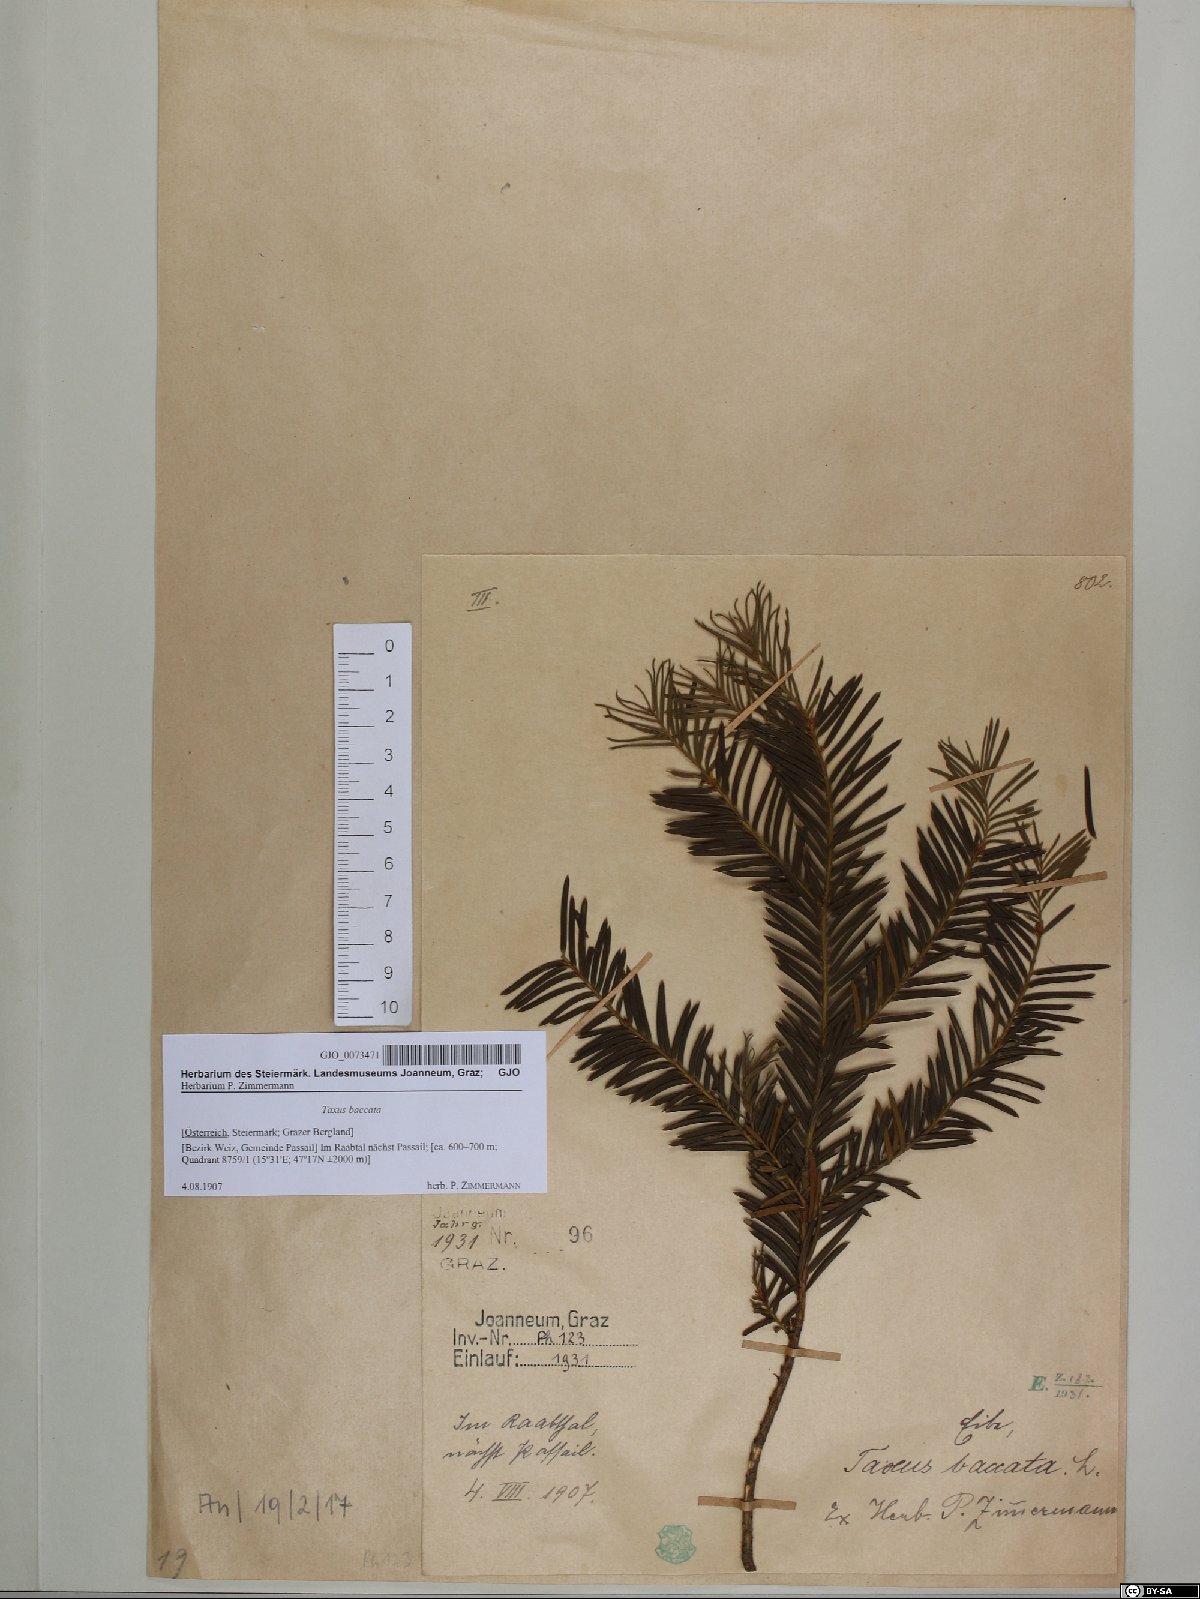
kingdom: Plantae
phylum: Tracheophyta
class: Pinopsida
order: Pinales
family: Taxaceae
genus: Taxus
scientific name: Taxus baccata
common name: Yew
